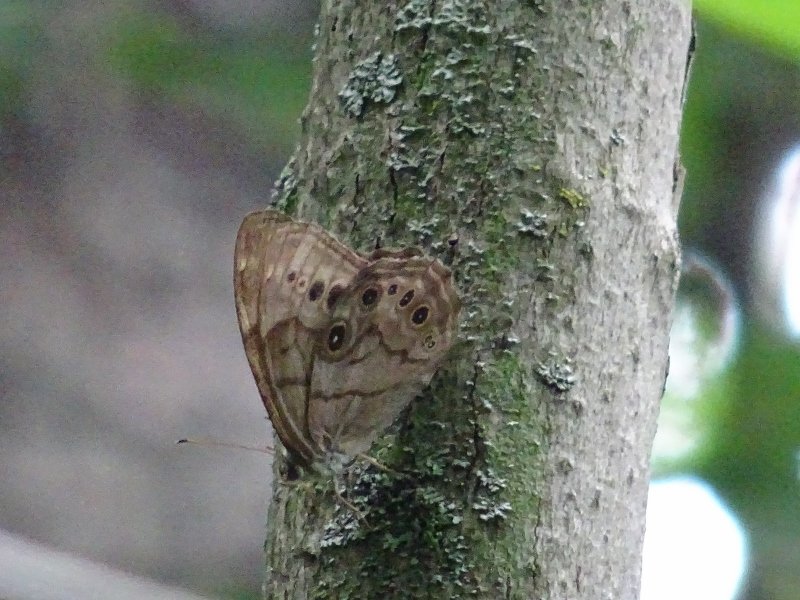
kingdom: Animalia
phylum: Arthropoda
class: Insecta
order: Lepidoptera
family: Nymphalidae
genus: Lethe
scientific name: Lethe anthedon
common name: Northern Pearly-Eye
